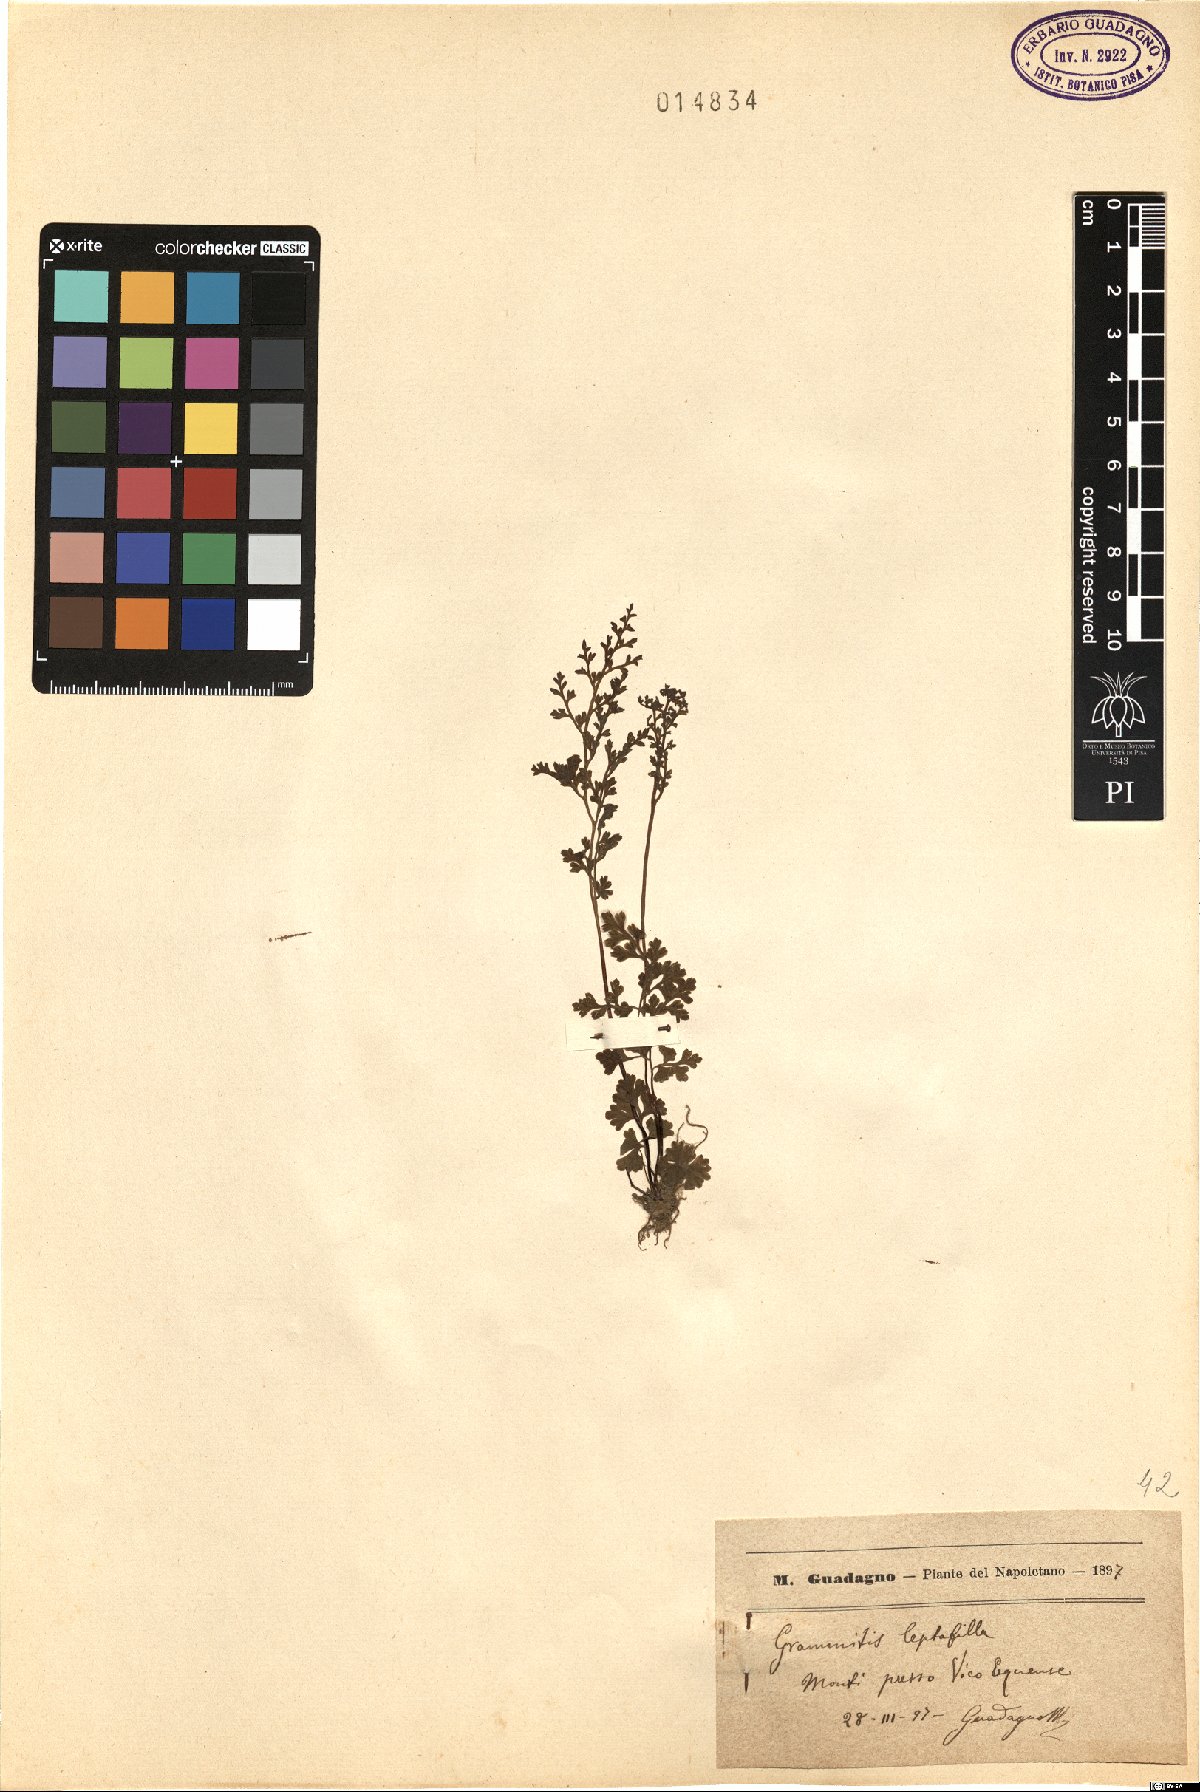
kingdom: Plantae
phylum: Tracheophyta
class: Polypodiopsida
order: Polypodiales
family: Pteridaceae
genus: Anogramma
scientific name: Anogramma leptophylla
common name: Jersey fern
